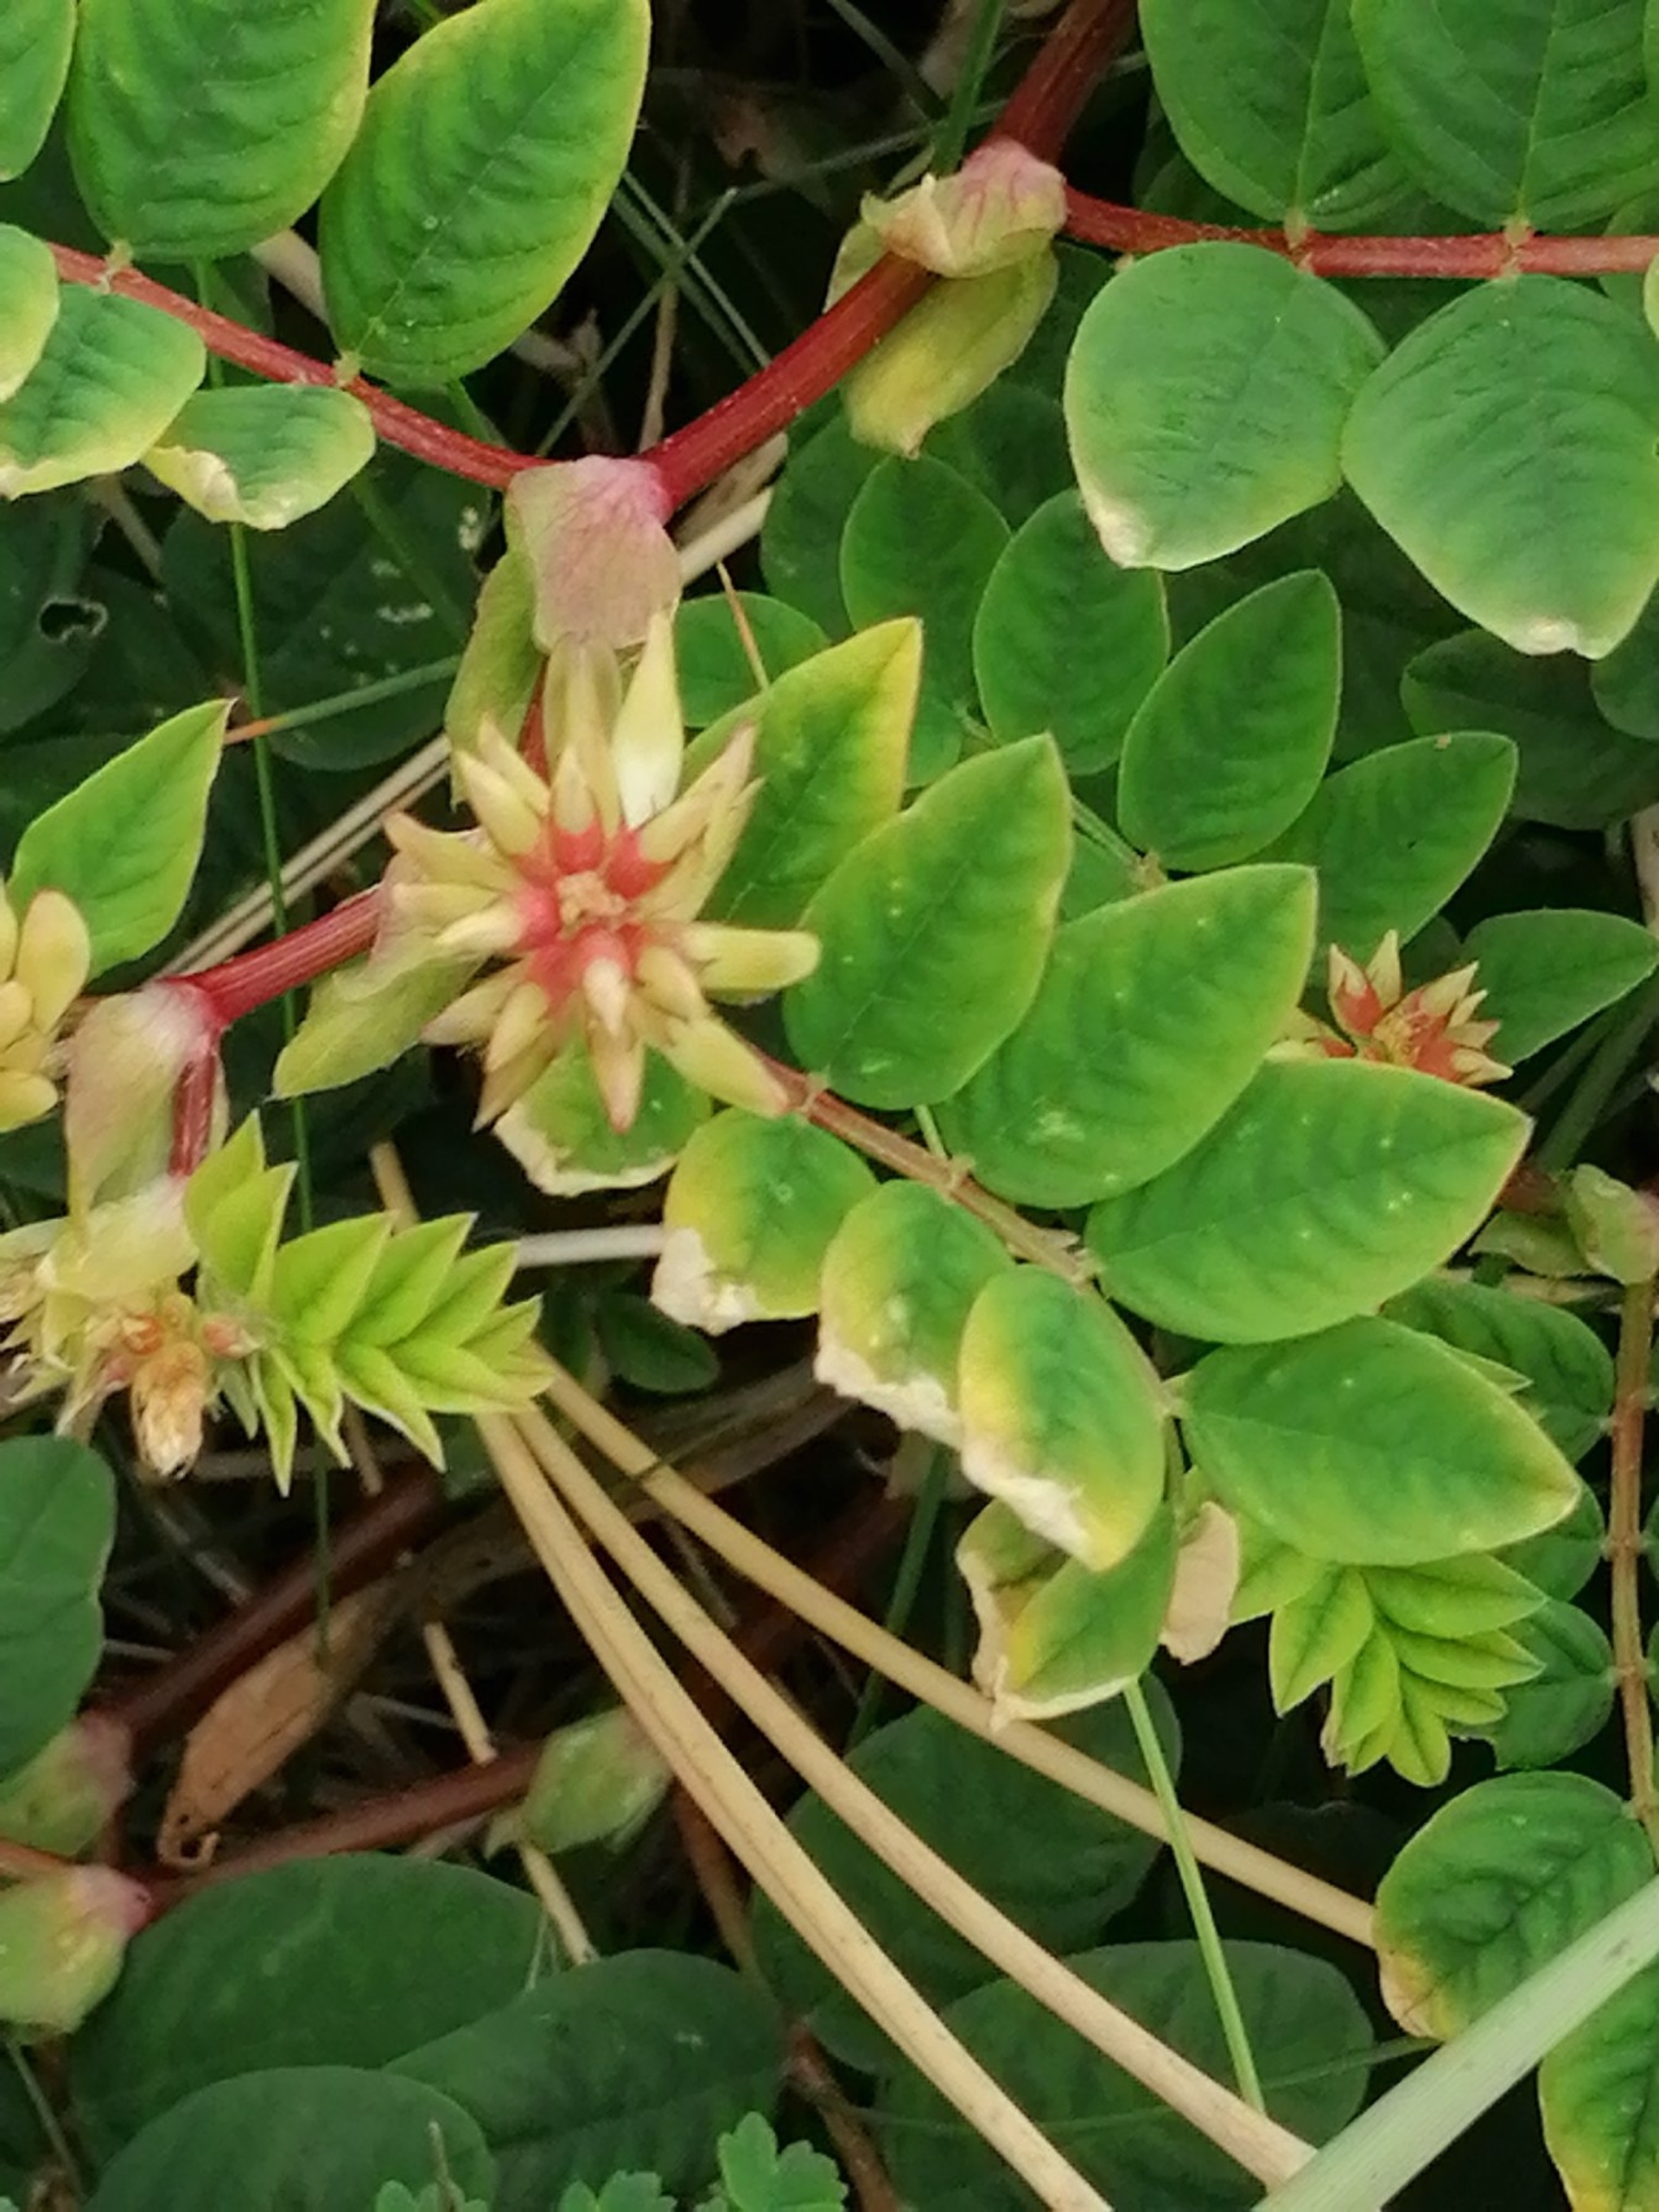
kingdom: Plantae
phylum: Tracheophyta
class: Magnoliopsida
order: Fabales
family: Fabaceae
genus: Astragalus
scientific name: Astragalus glycyphyllos
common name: Sød astragel
